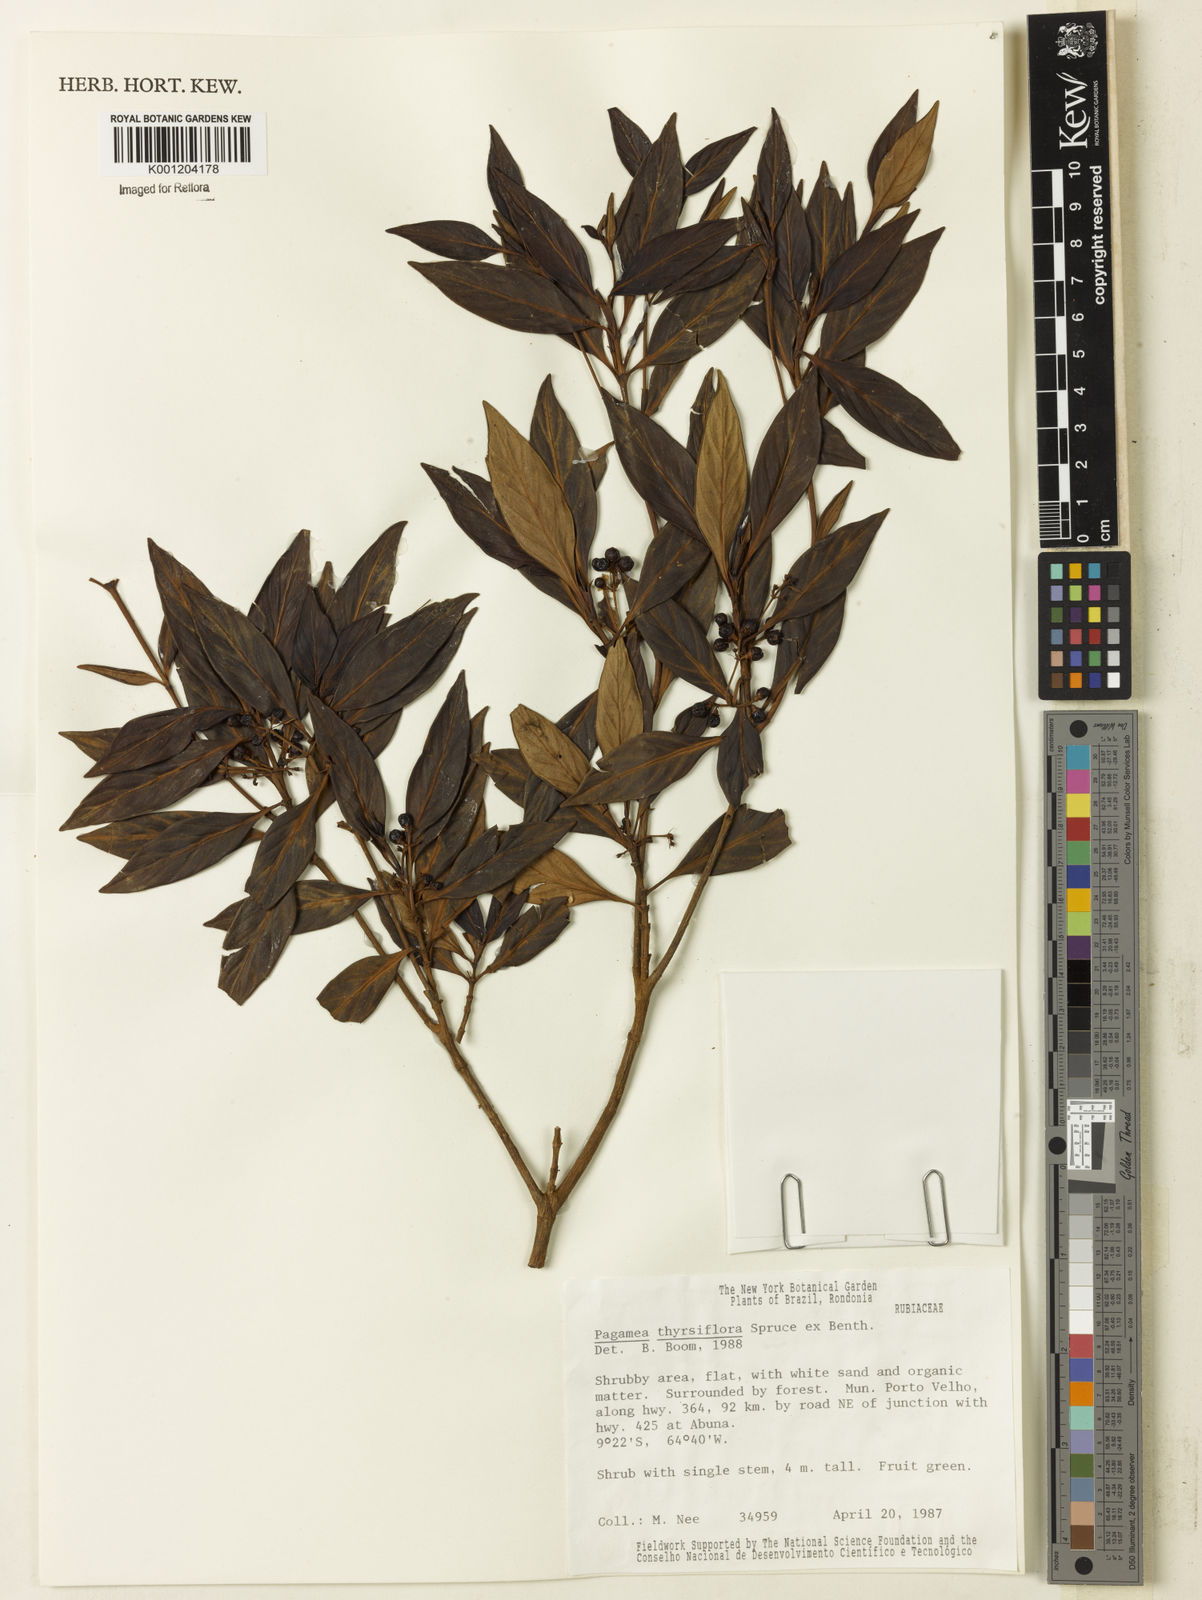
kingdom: Plantae
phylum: Tracheophyta
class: Magnoliopsida
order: Gentianales
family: Rubiaceae
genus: Pagamea
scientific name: Pagamea thyrsiflora
